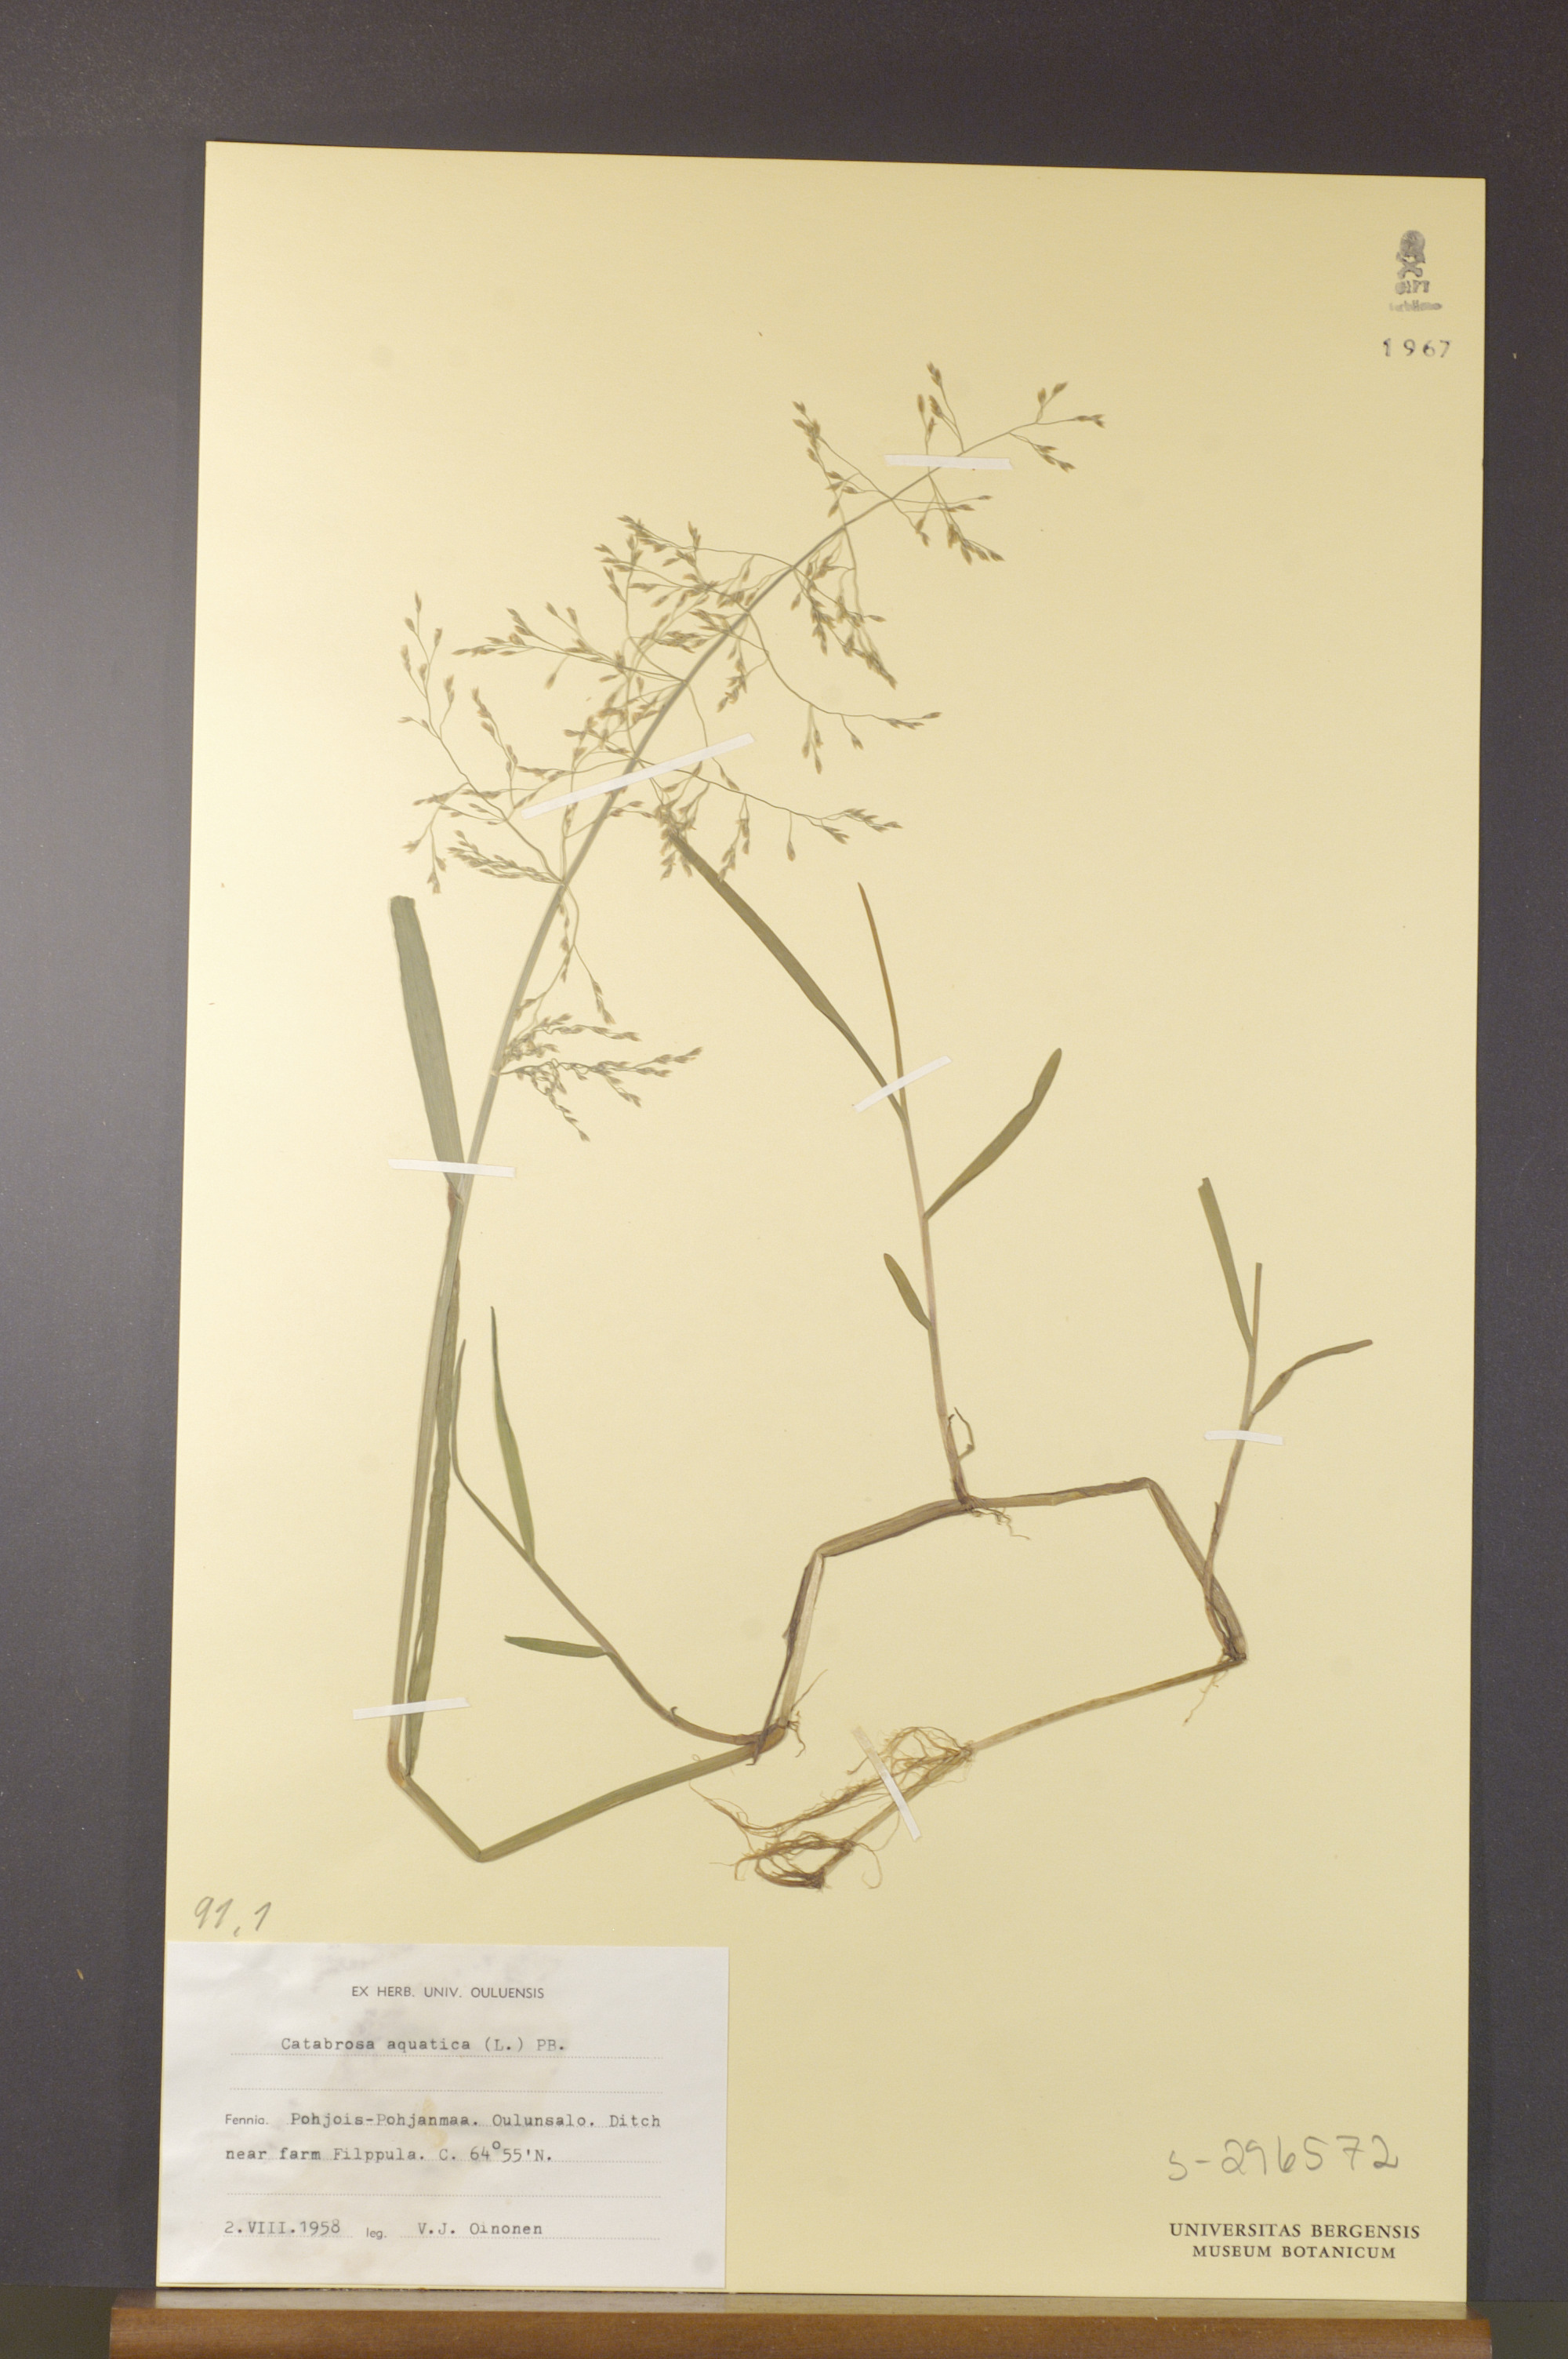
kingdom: Plantae
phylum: Tracheophyta
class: Liliopsida
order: Poales
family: Poaceae
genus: Catabrosa
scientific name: Catabrosa aquatica
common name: Whorl-grass
